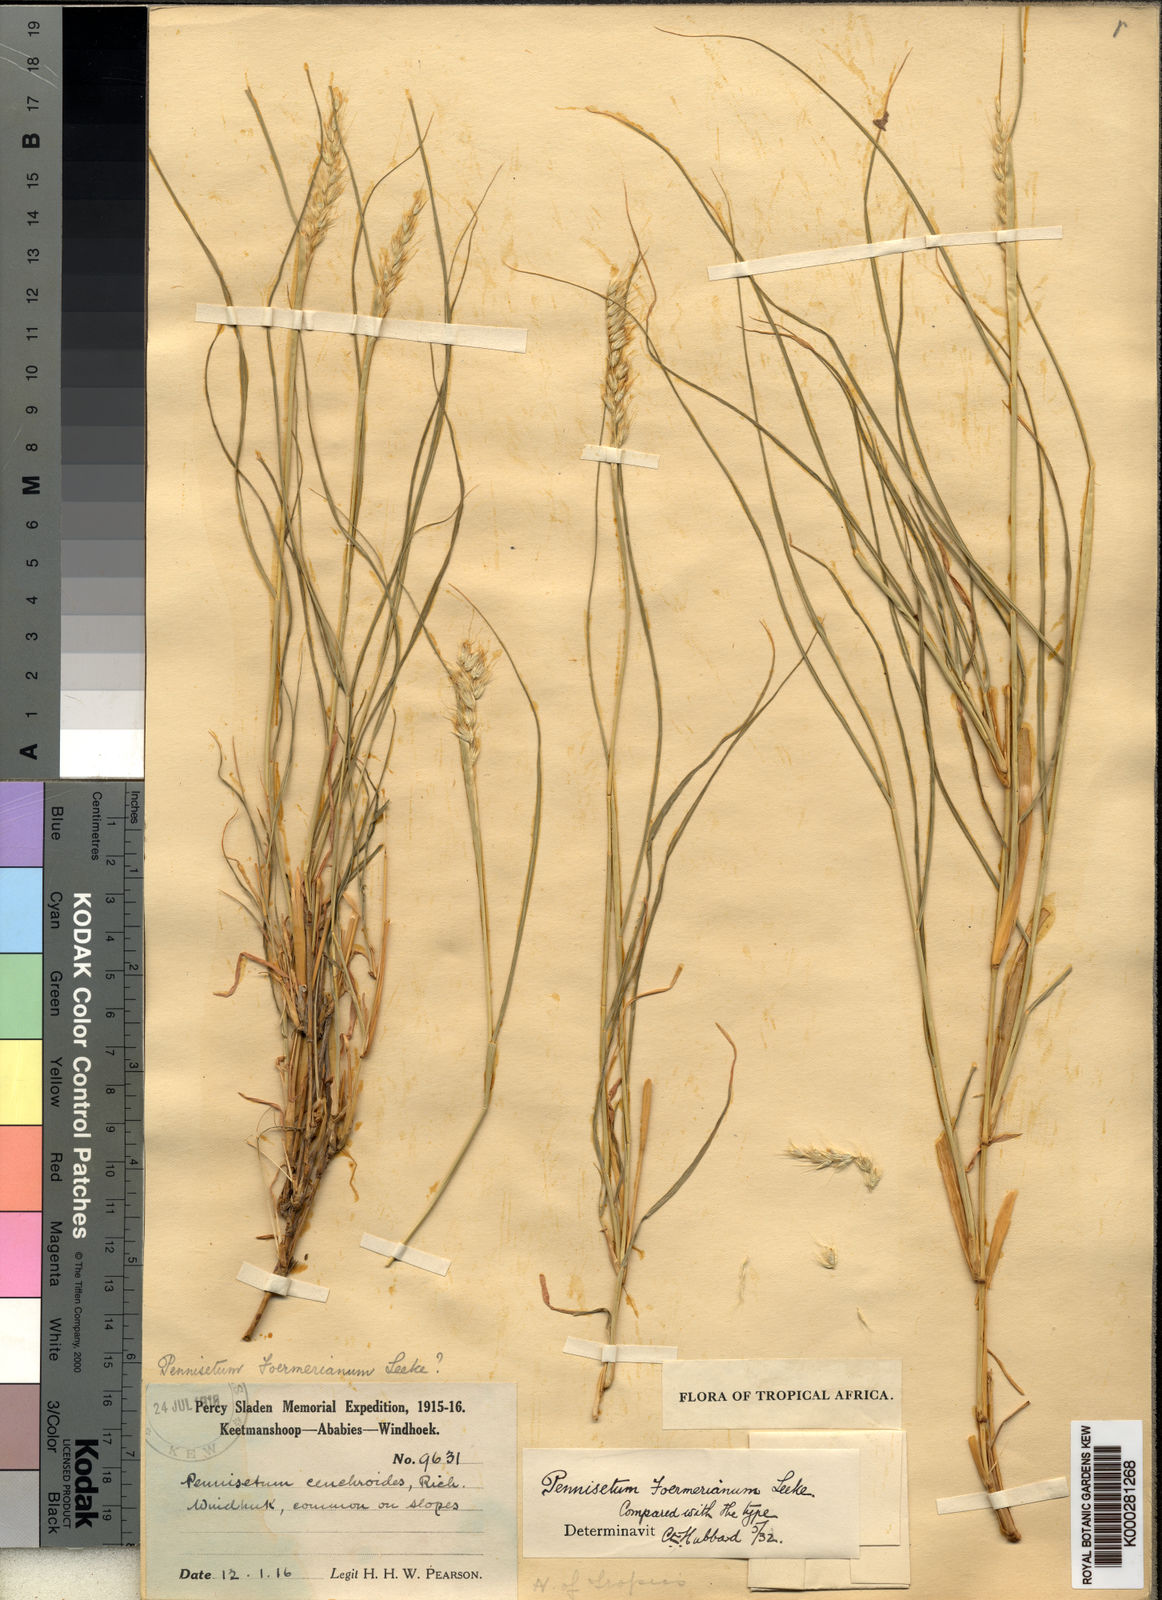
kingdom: Plantae
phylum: Tracheophyta
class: Liliopsida
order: Poales
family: Poaceae
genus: Cenchrus
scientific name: Cenchrus foermerianus
